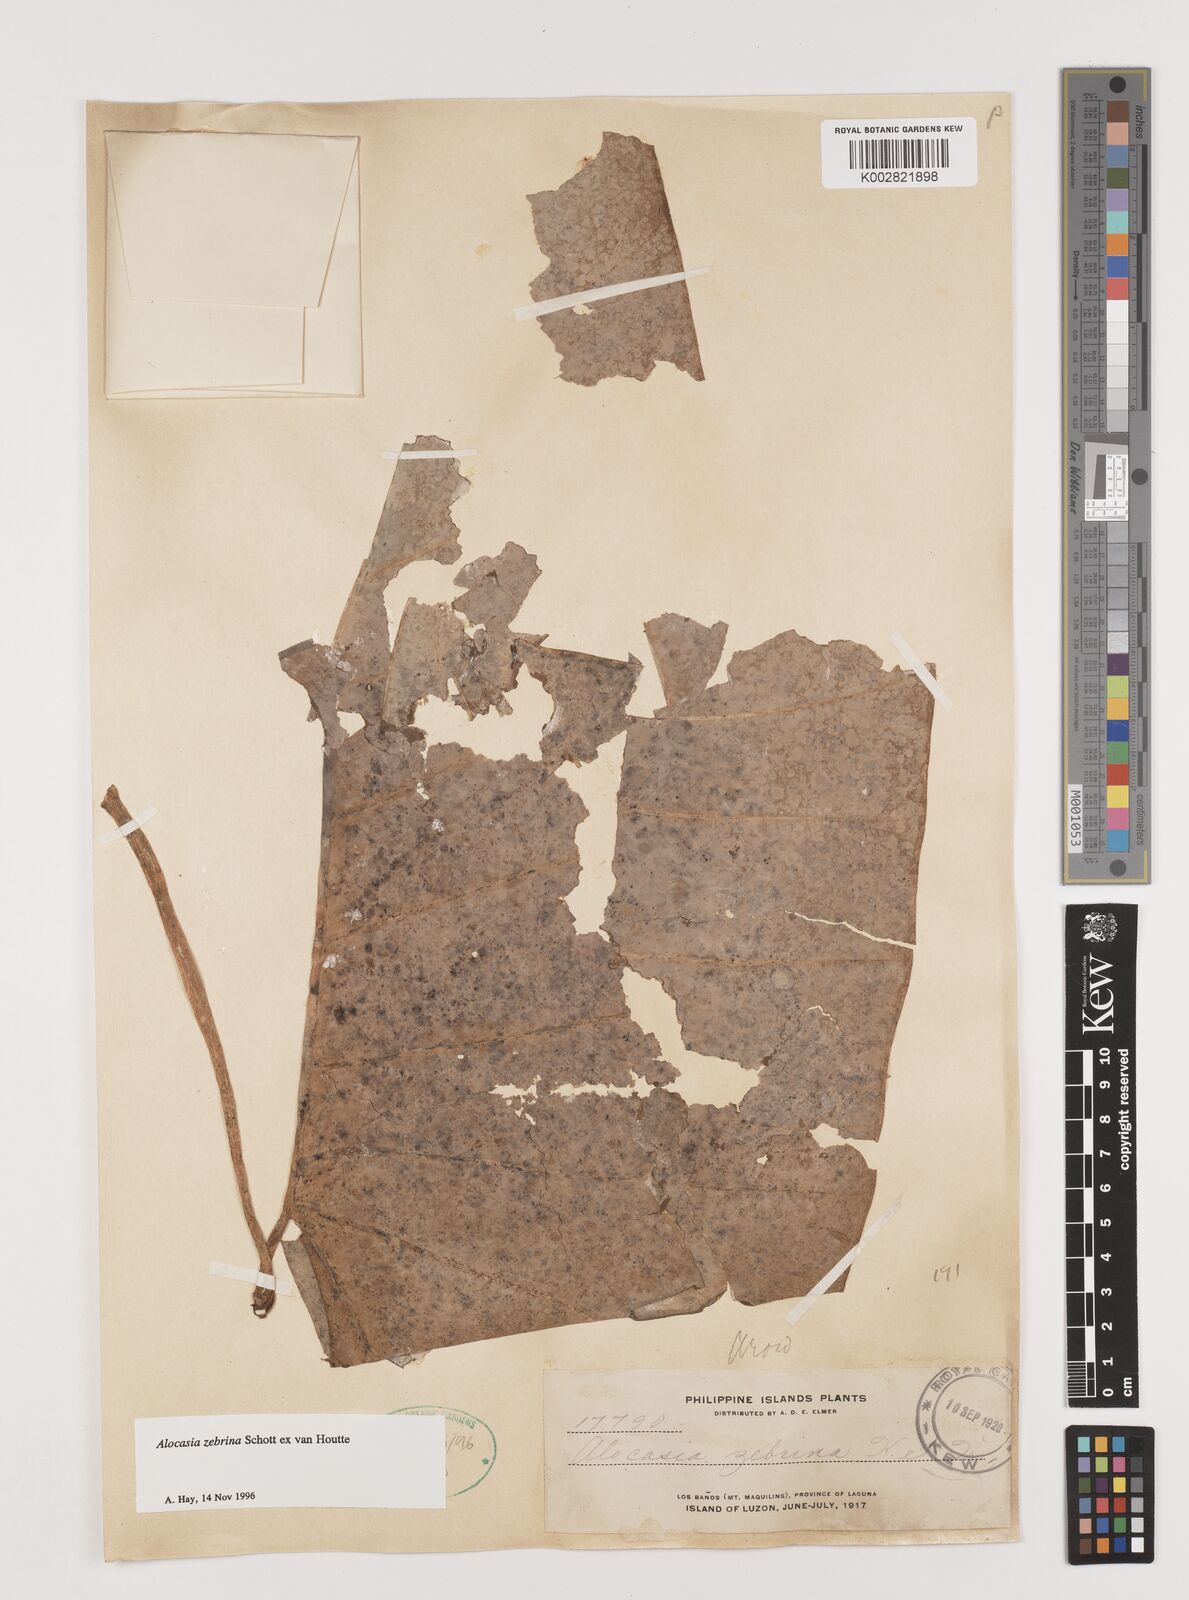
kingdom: Plantae
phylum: Tracheophyta
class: Liliopsida
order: Alismatales
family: Araceae
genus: Alocasia
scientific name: Alocasia zebrina
